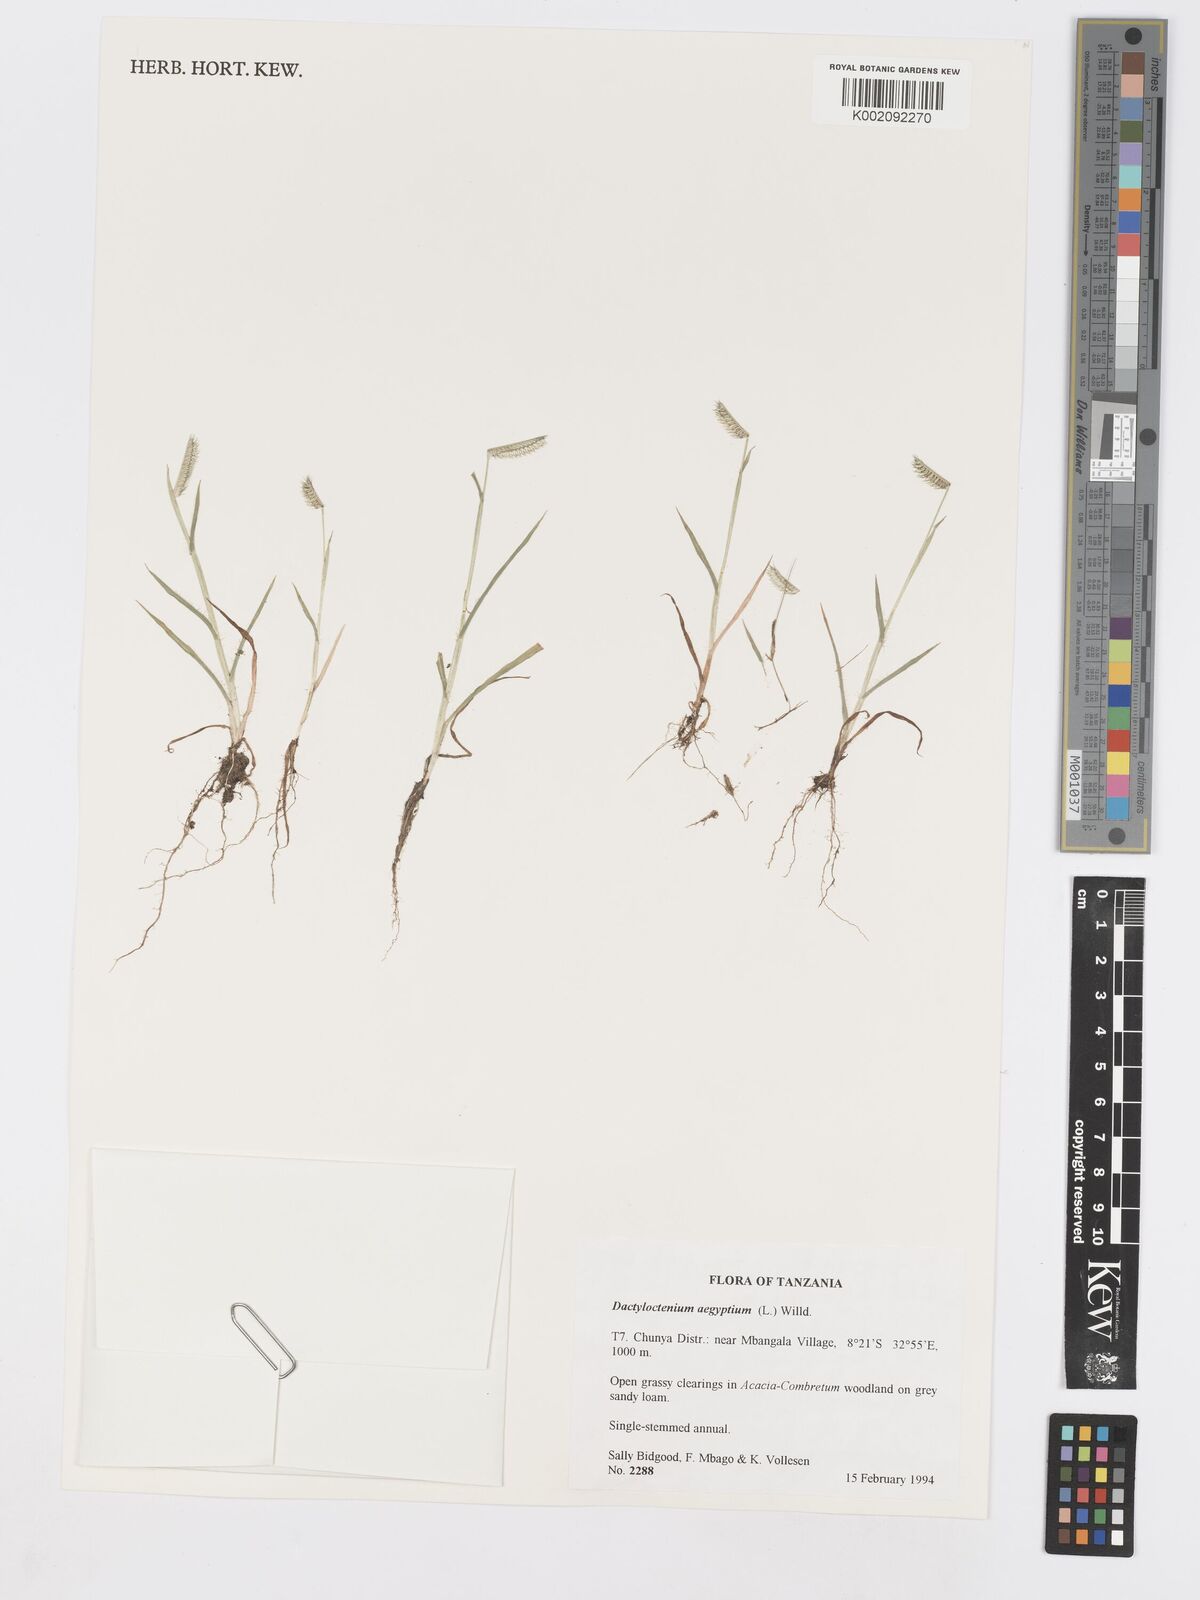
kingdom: Plantae
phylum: Tracheophyta
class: Liliopsida
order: Poales
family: Poaceae
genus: Dactyloctenium
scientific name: Dactyloctenium aegyptium
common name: Egyptian grass
